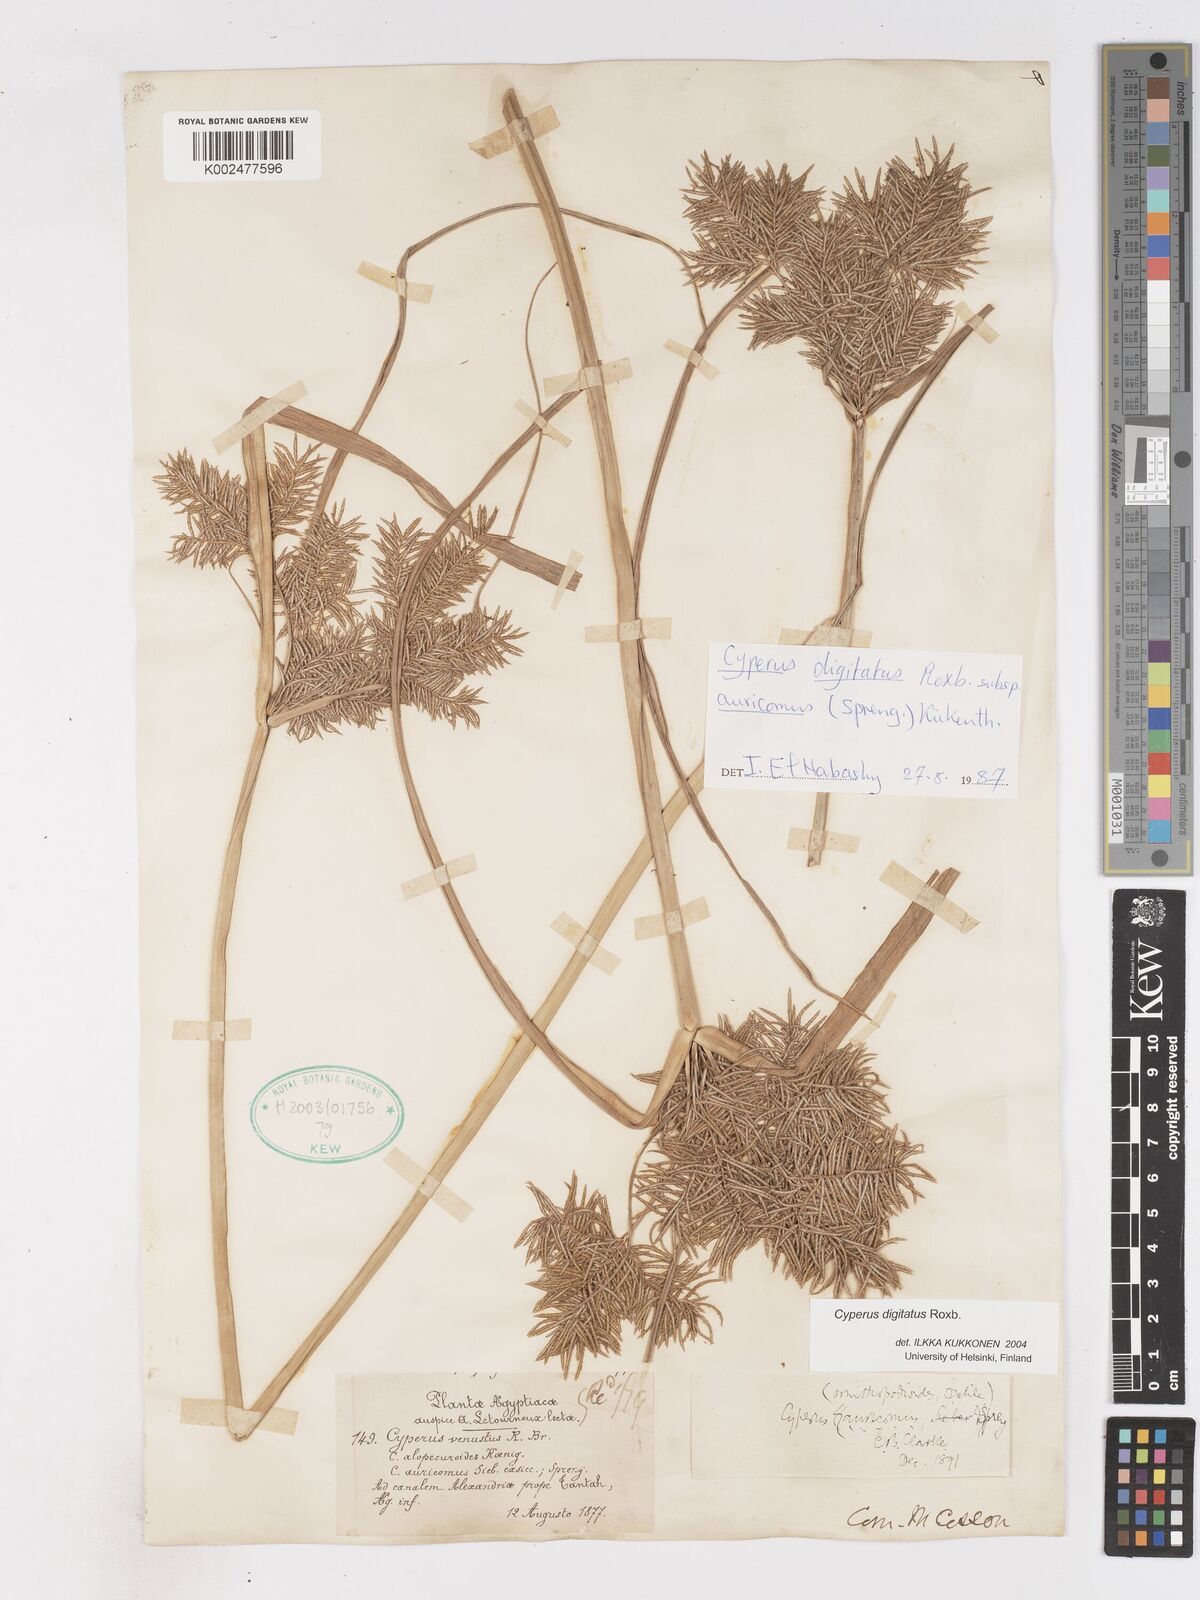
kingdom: Plantae
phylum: Tracheophyta
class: Liliopsida
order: Poales
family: Cyperaceae
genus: Cyperus
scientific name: Cyperus digitatus
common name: Finger flatsedge
